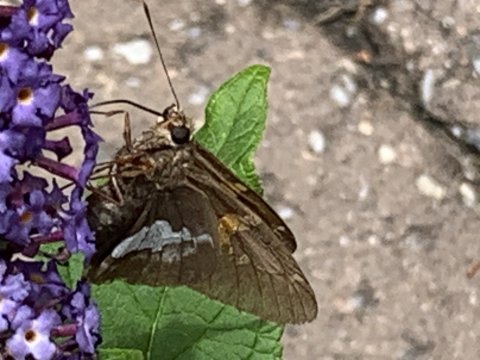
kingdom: Animalia
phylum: Arthropoda
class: Insecta
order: Lepidoptera
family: Hesperiidae
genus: Epargyreus
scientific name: Epargyreus clarus
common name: Silver-spotted Skipper
